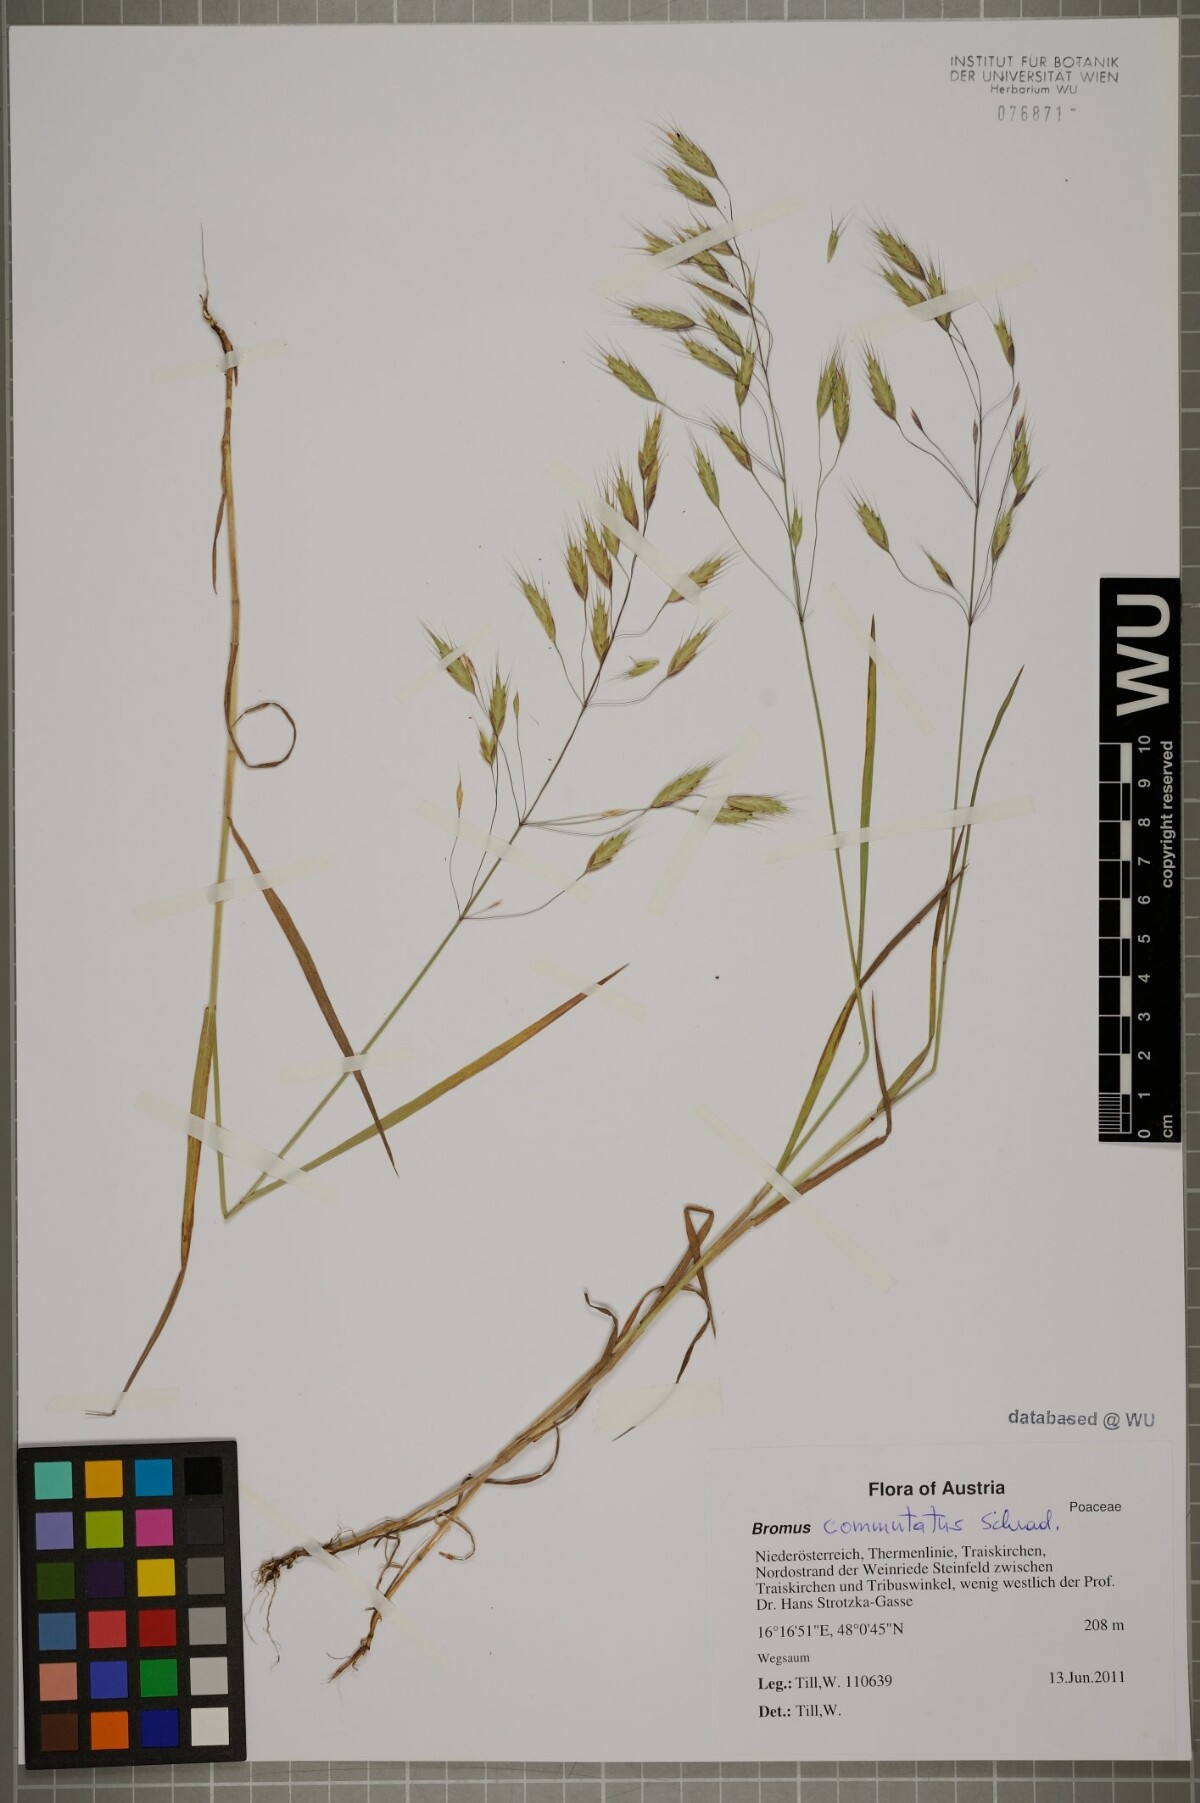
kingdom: Plantae
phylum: Tracheophyta
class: Liliopsida
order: Poales
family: Poaceae
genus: Bromus
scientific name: Bromus japonicus
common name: Japanese brome
